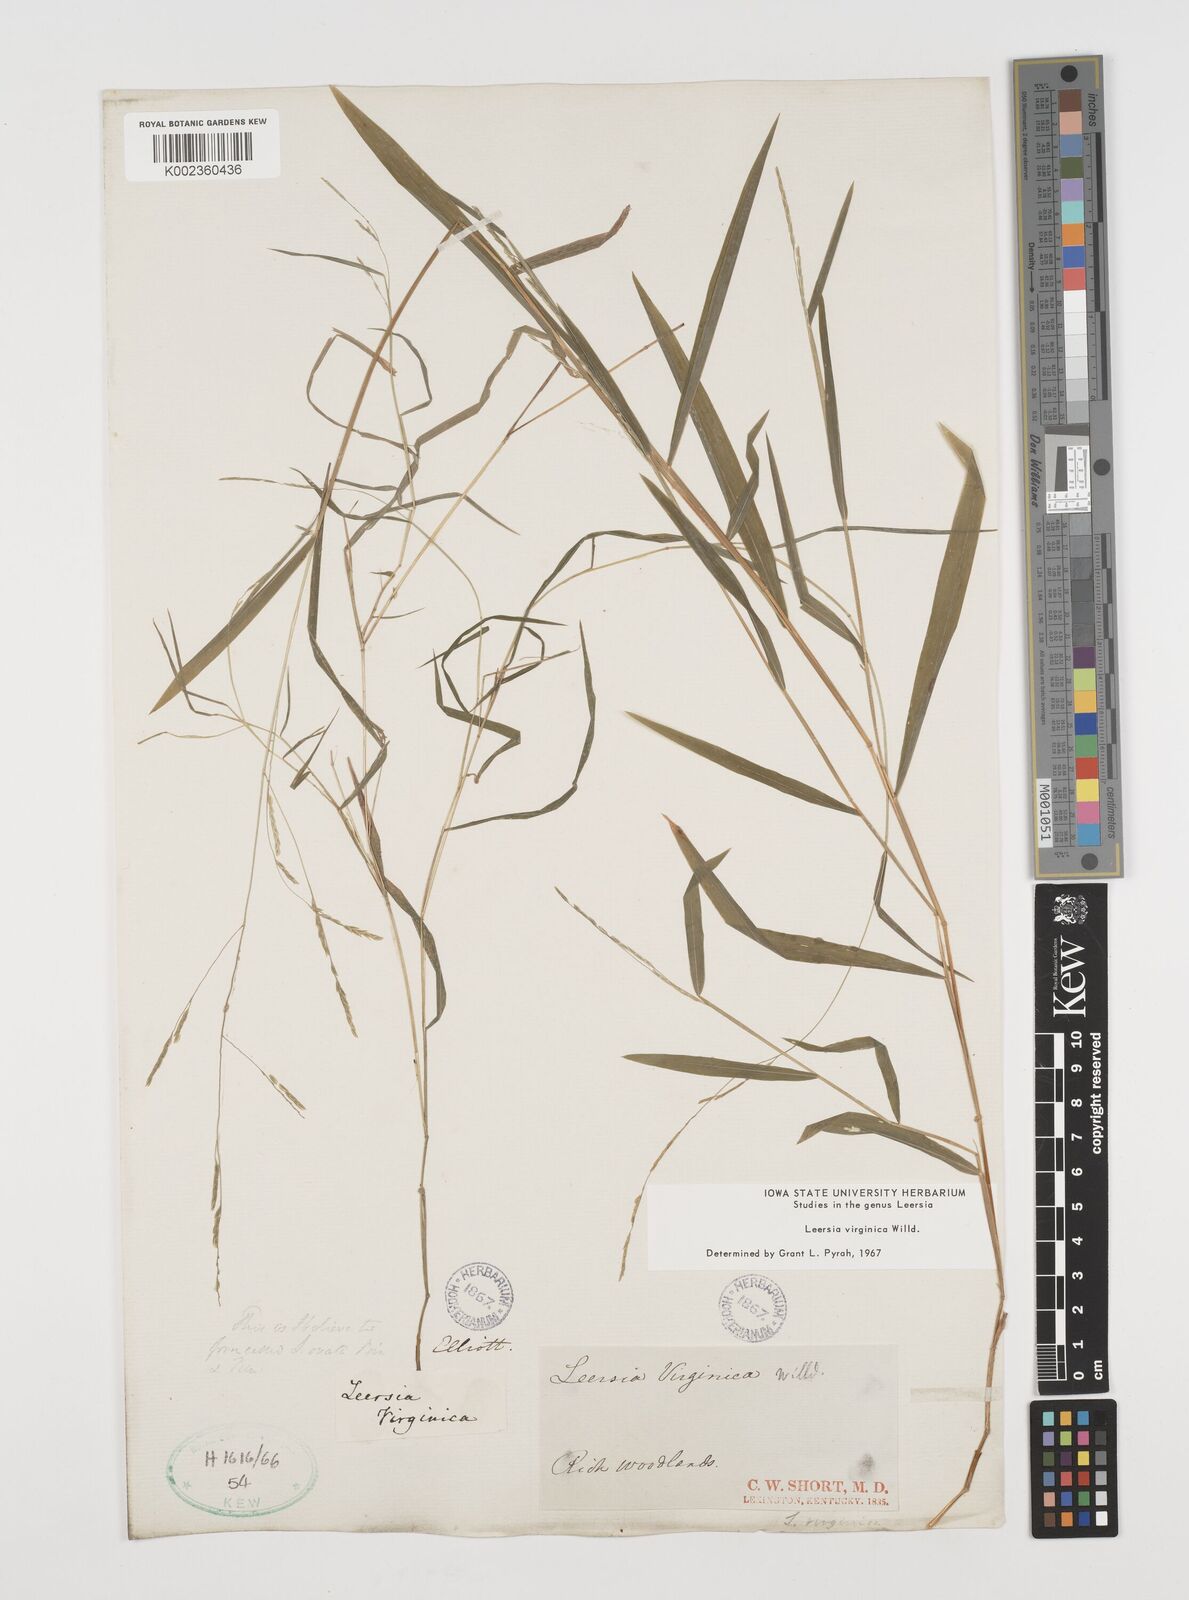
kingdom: Plantae
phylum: Tracheophyta
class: Liliopsida
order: Poales
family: Poaceae
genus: Leersia
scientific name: Leersia virginica
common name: White cutgrass
